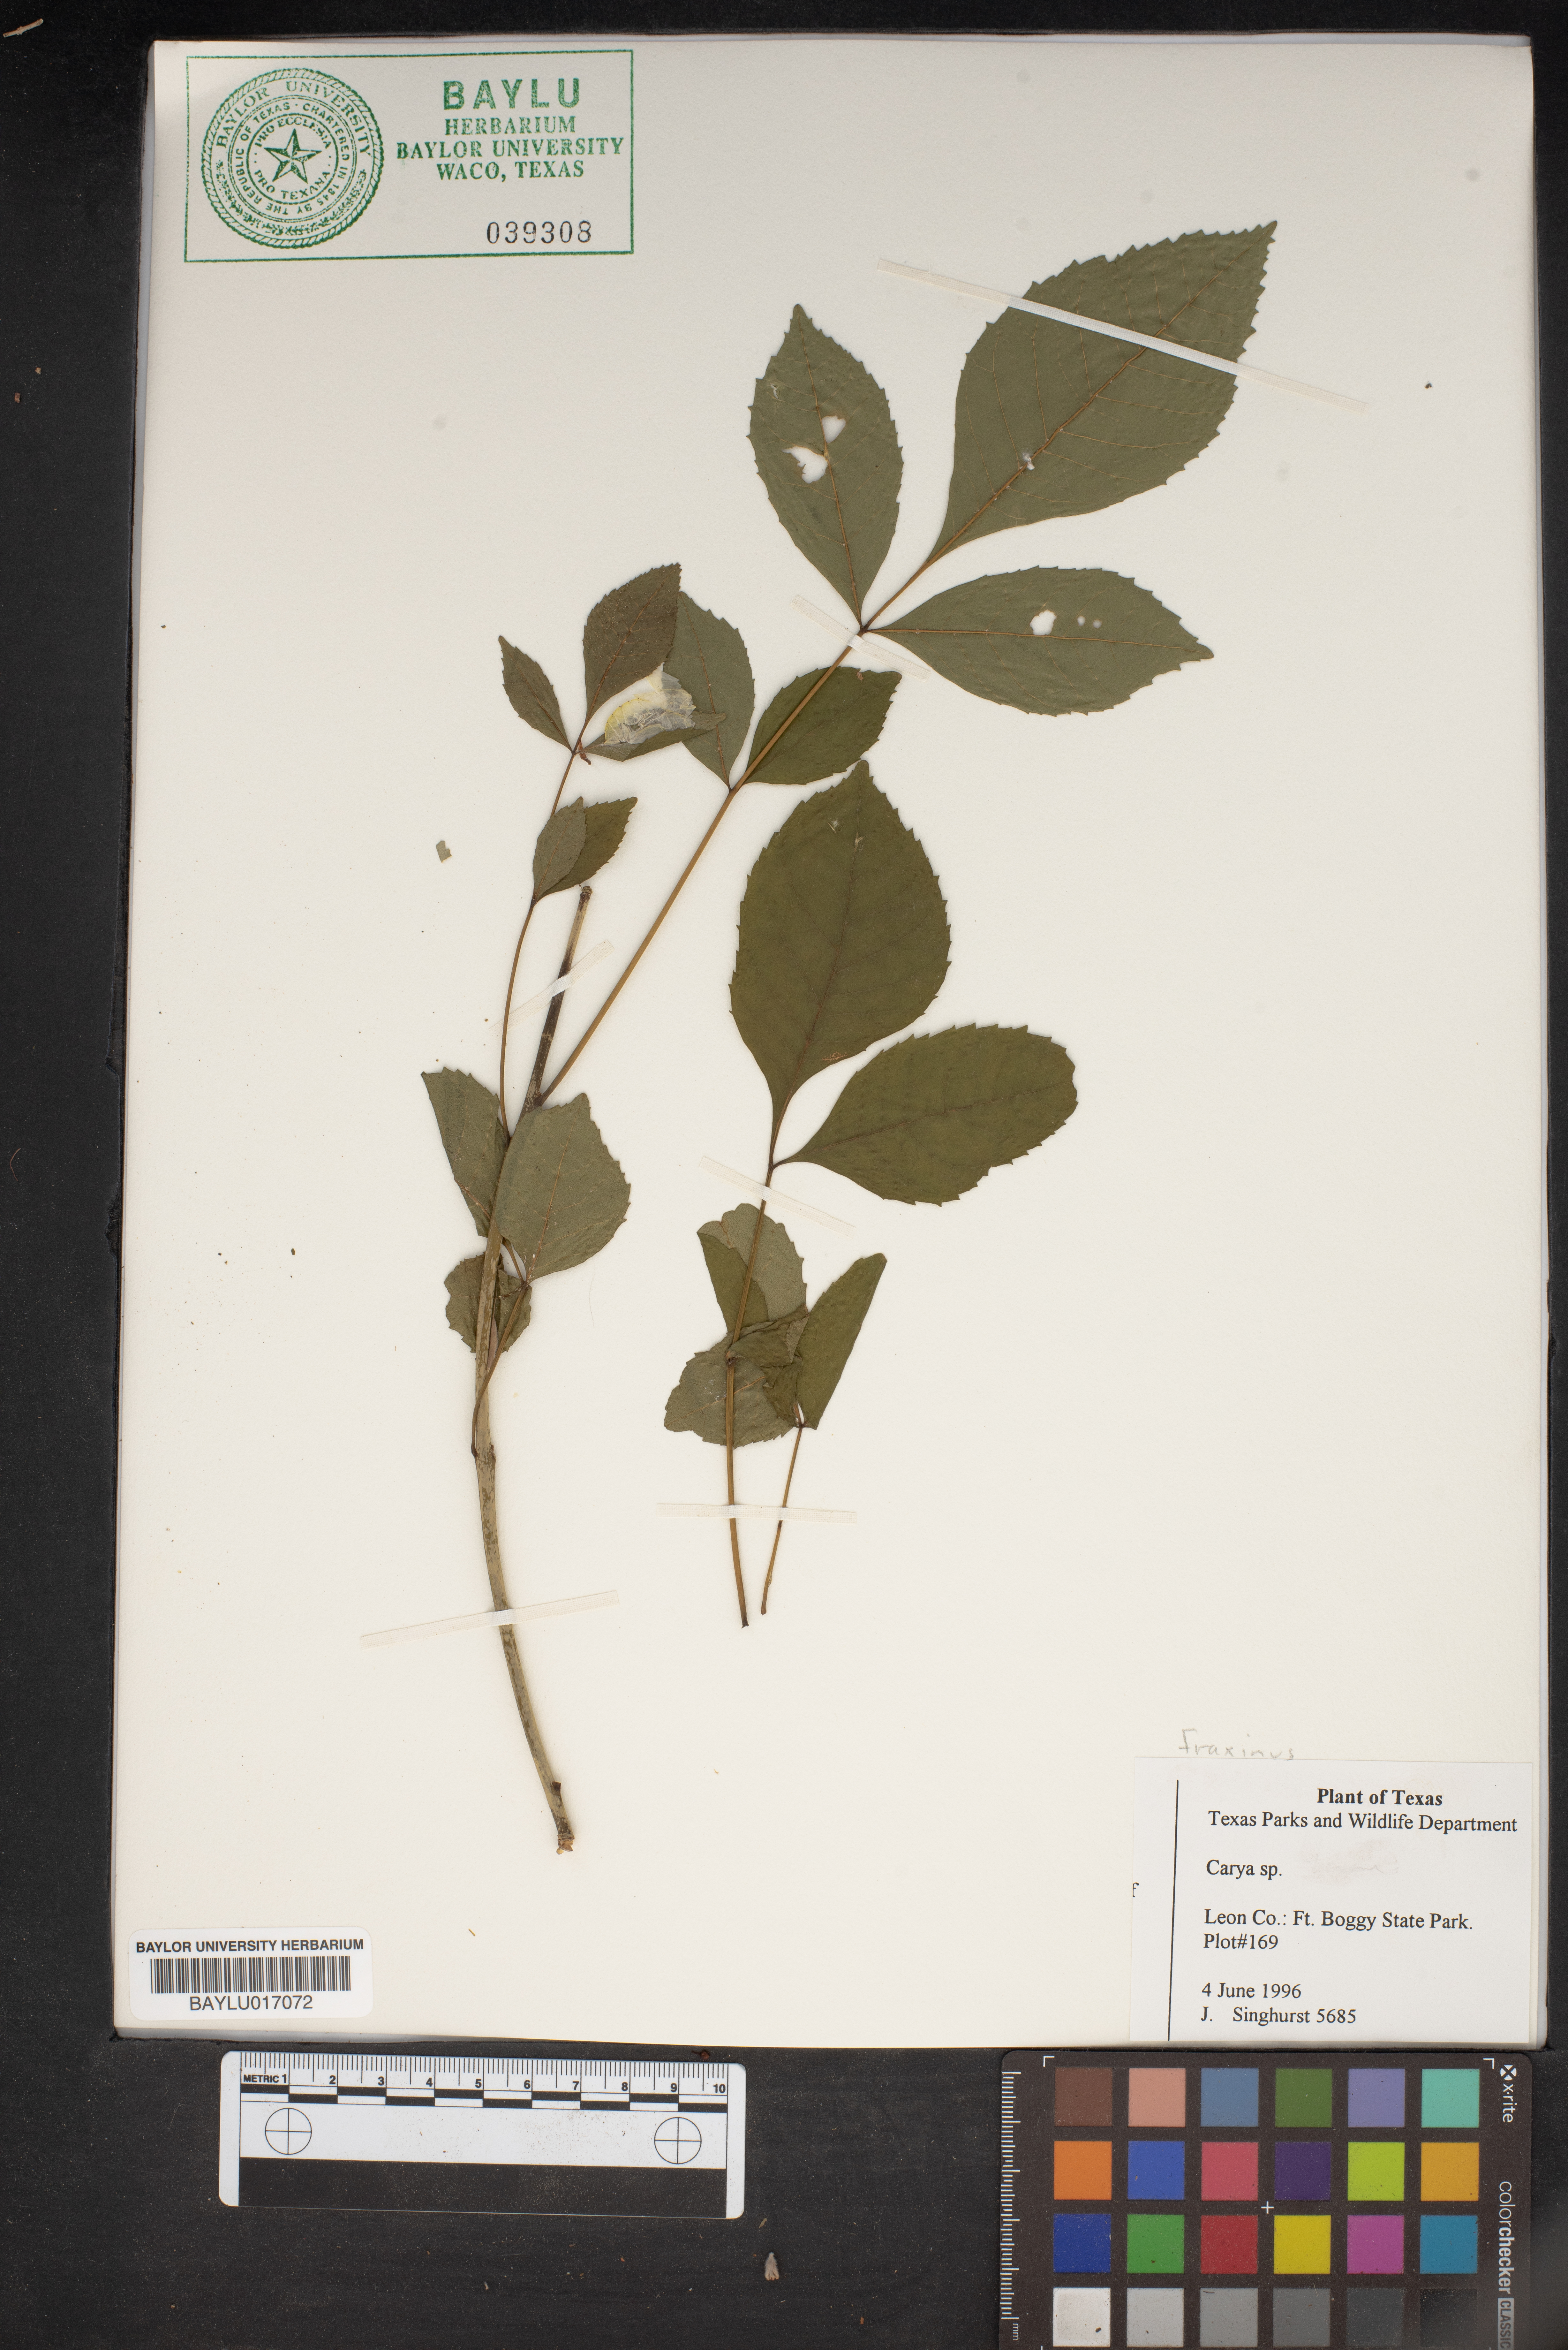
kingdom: Plantae
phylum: Tracheophyta
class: Magnoliopsida
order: Fagales
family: Juglandaceae
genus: Carya
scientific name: Carya
